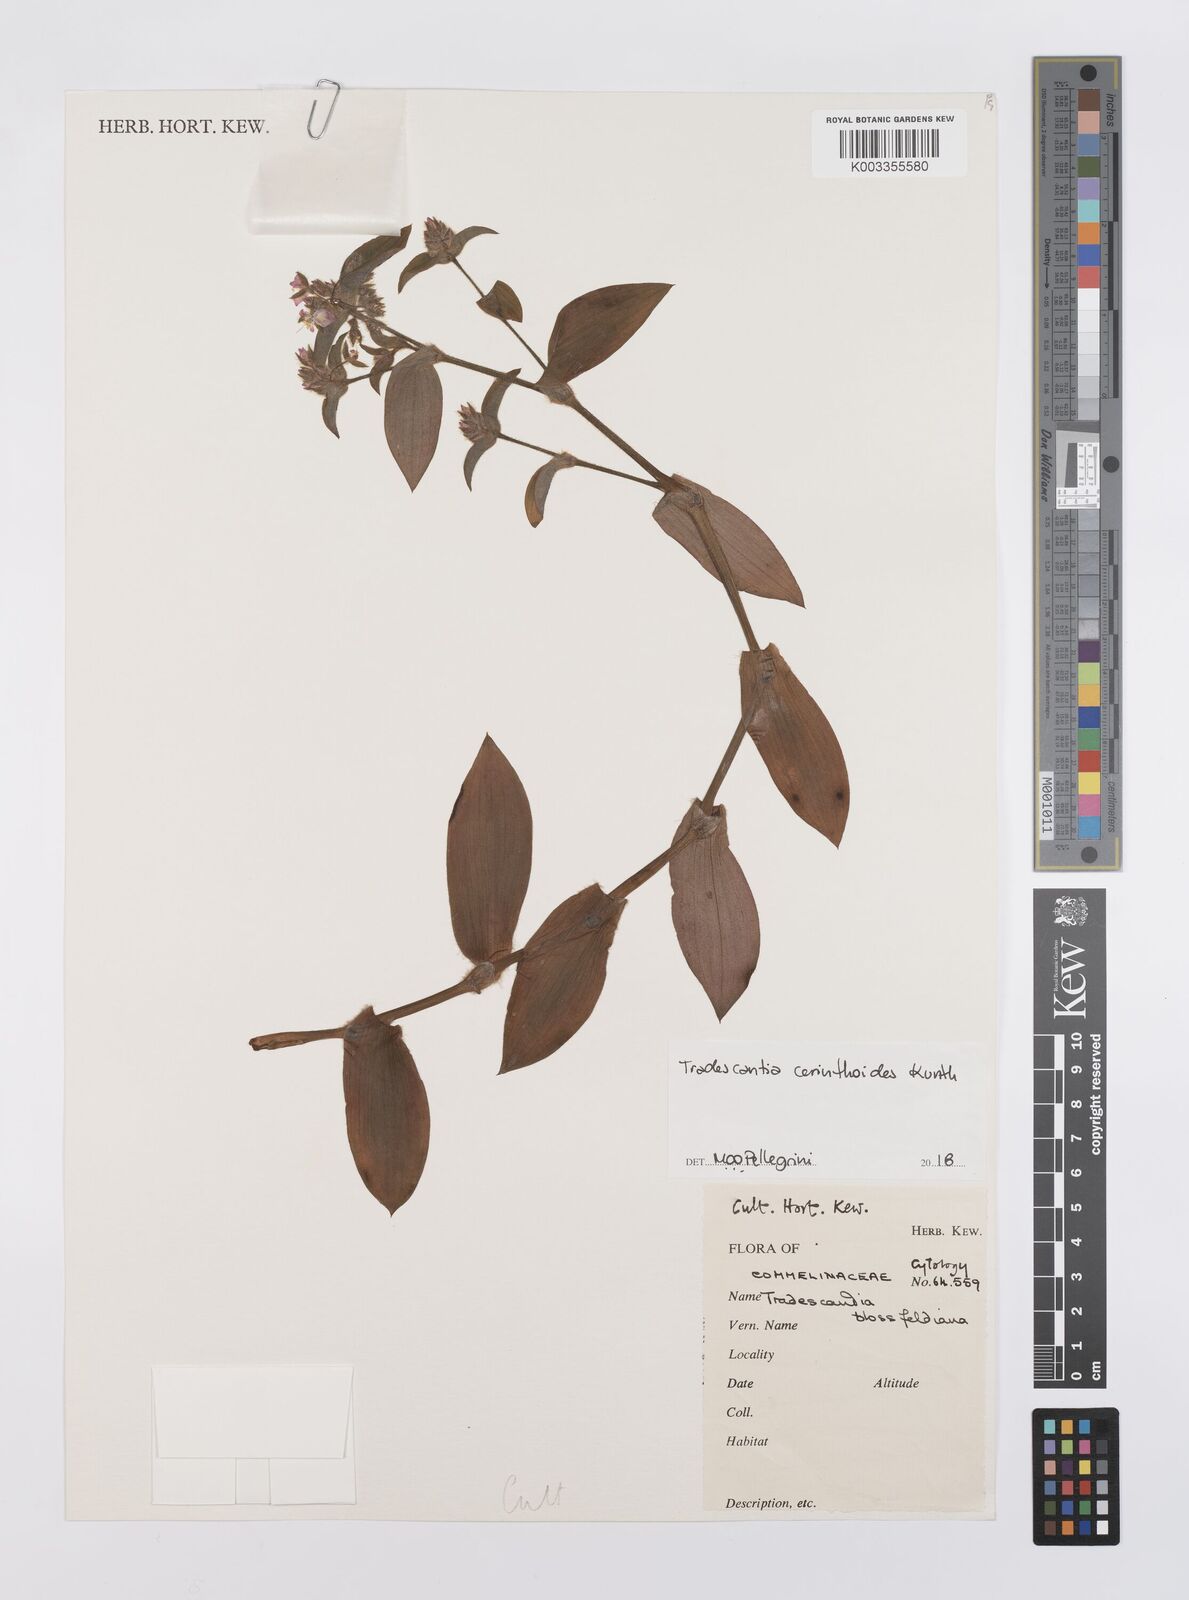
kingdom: Plantae
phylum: Tracheophyta
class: Liliopsida
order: Commelinales
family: Commelinaceae
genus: Tradescantia
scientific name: Tradescantia cerinthoides
